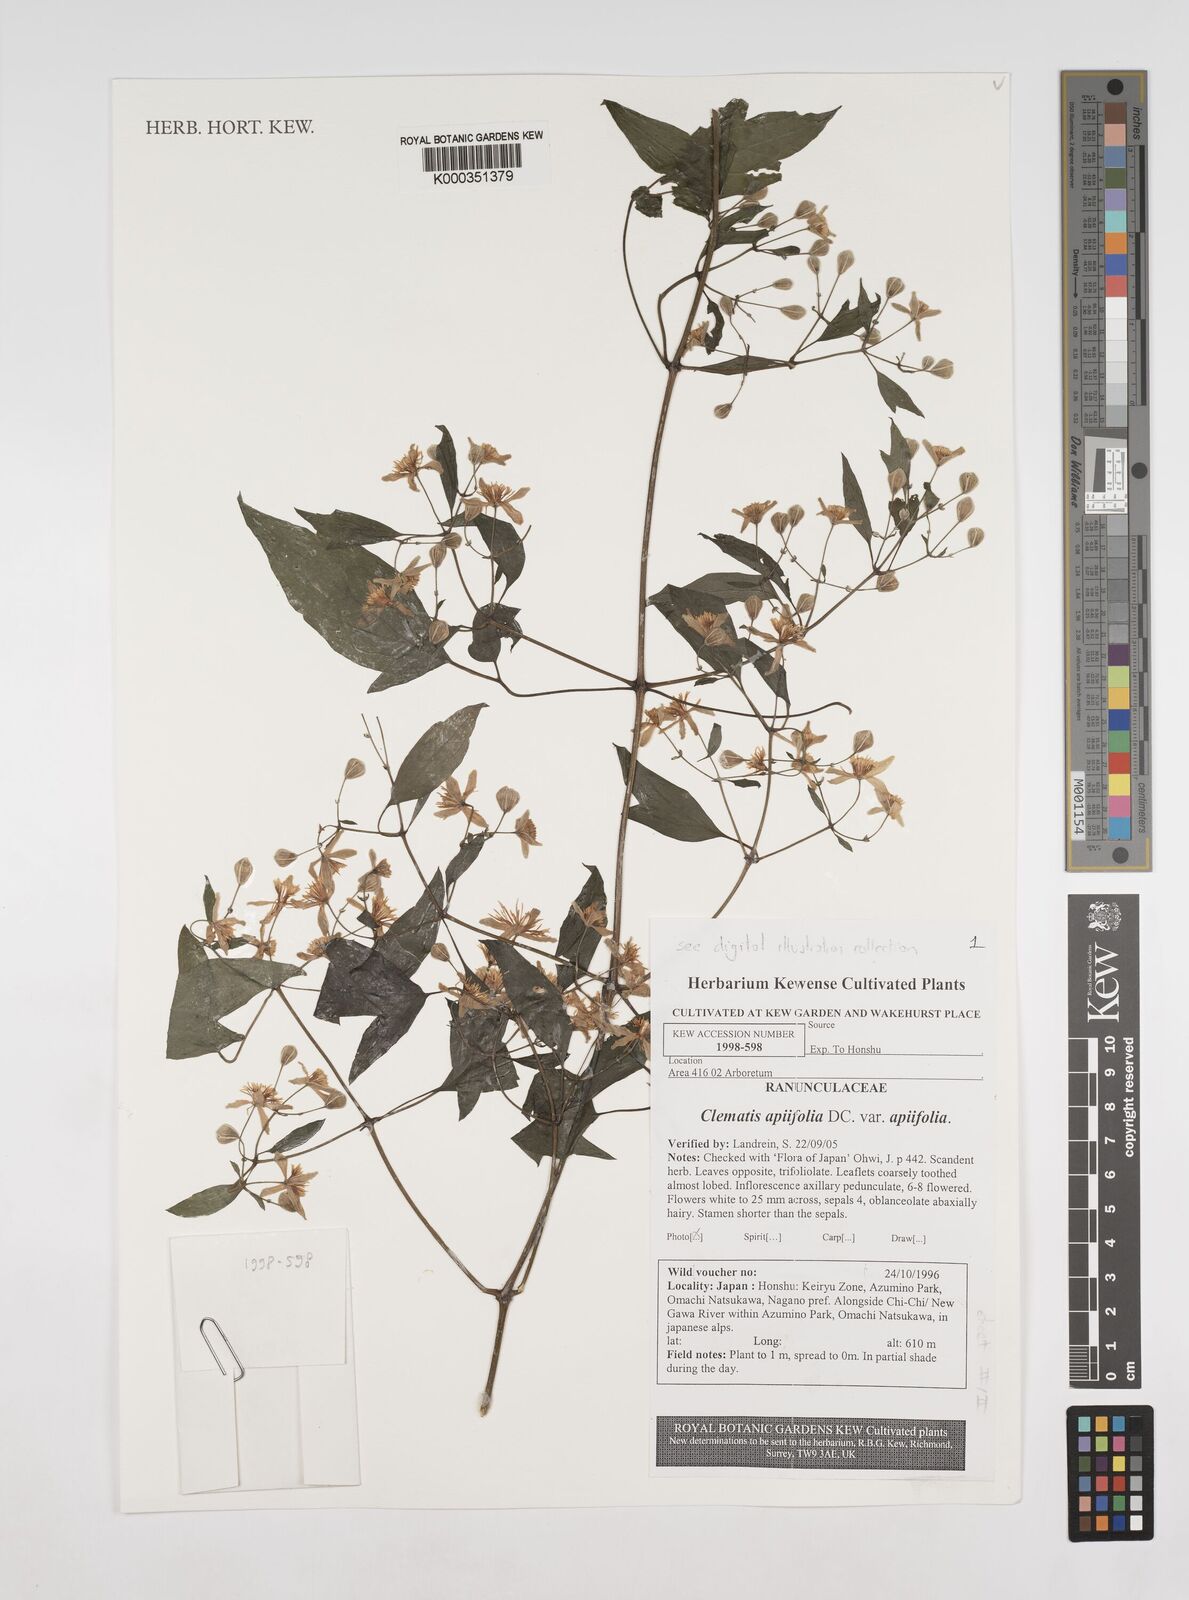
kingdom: Plantae
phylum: Tracheophyta
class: Magnoliopsida
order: Ranunculales
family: Ranunculaceae
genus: Clematis
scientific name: Clematis apiifolia
